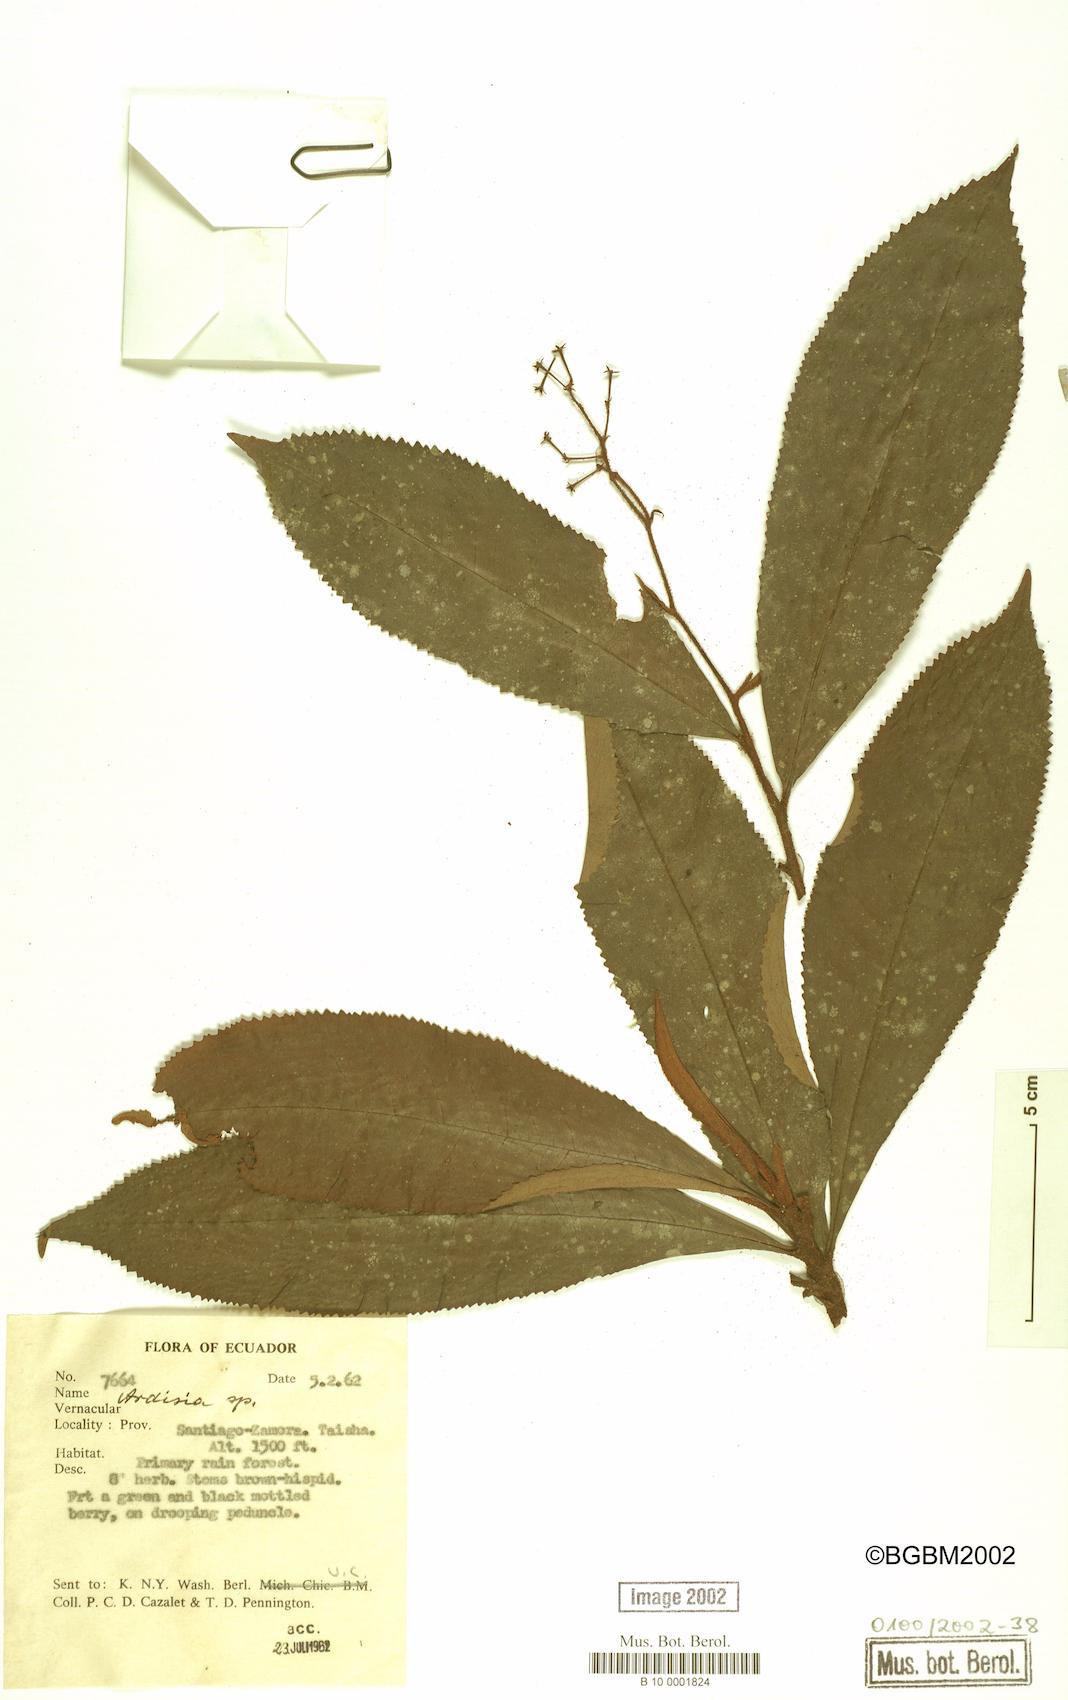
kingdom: Plantae
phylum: Tracheophyta
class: Magnoliopsida
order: Ericales
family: Primulaceae
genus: Ardisia
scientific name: Ardisia
